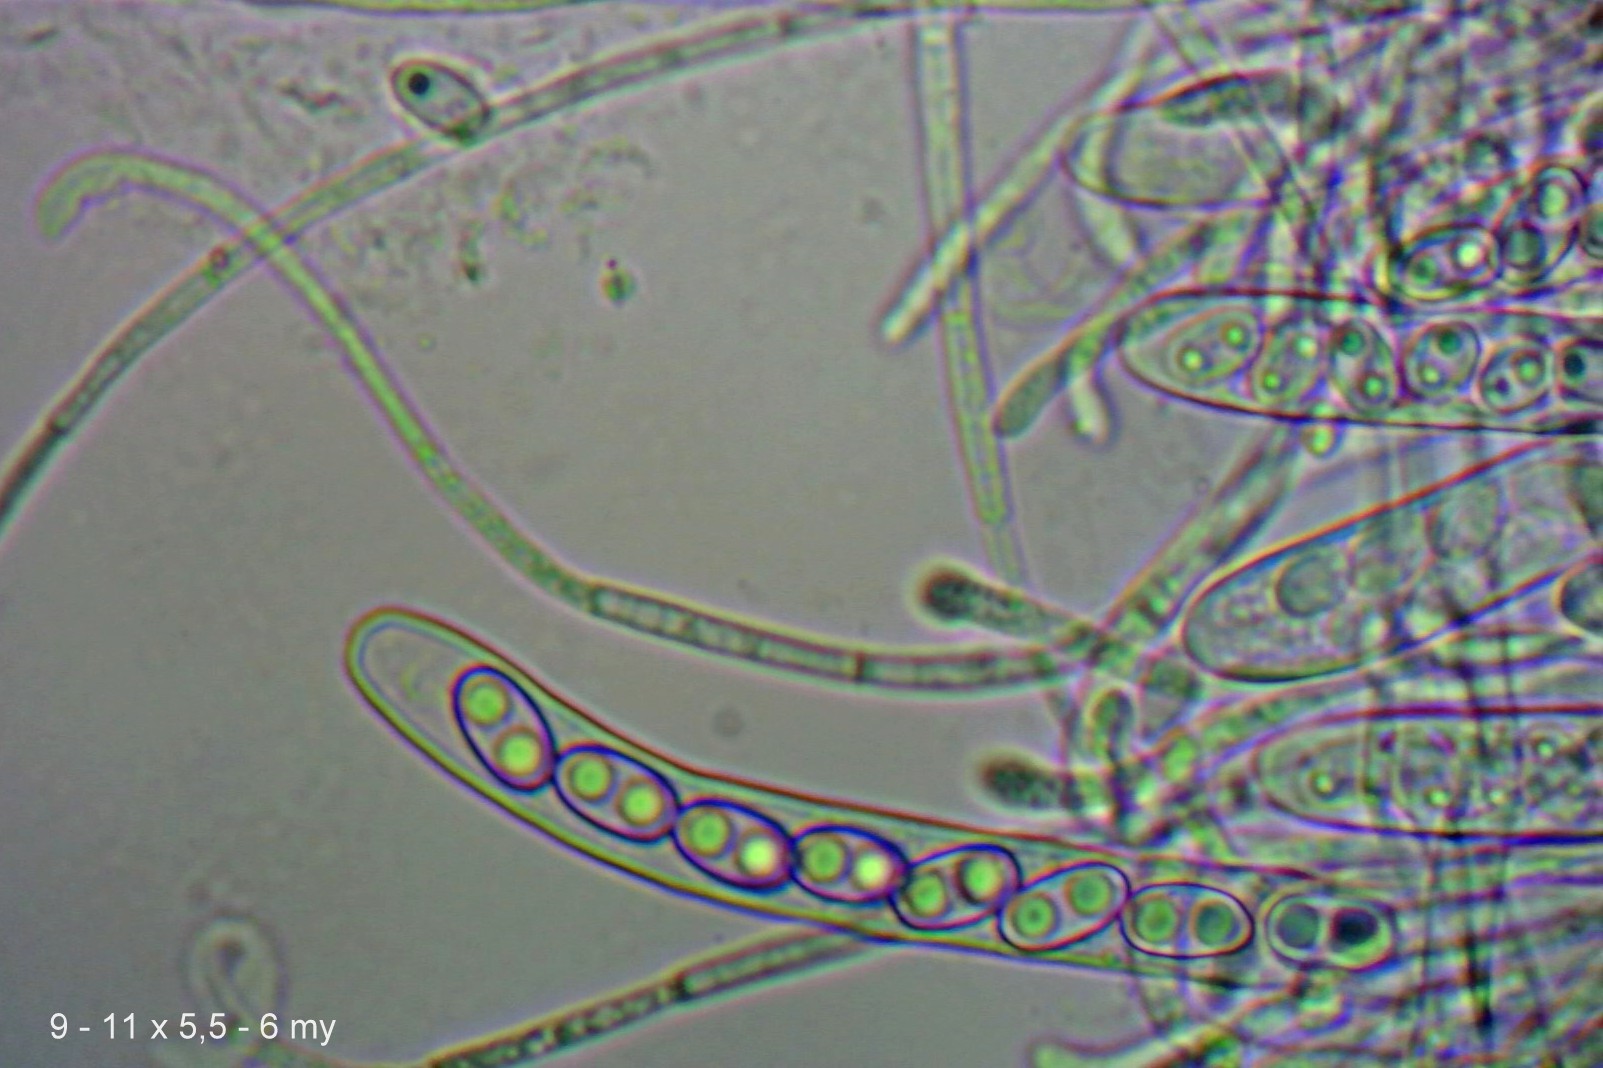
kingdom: Fungi
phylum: Ascomycota
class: Pezizomycetes
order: Pezizales
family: Otideaceae
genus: Otidea
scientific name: Otidea
